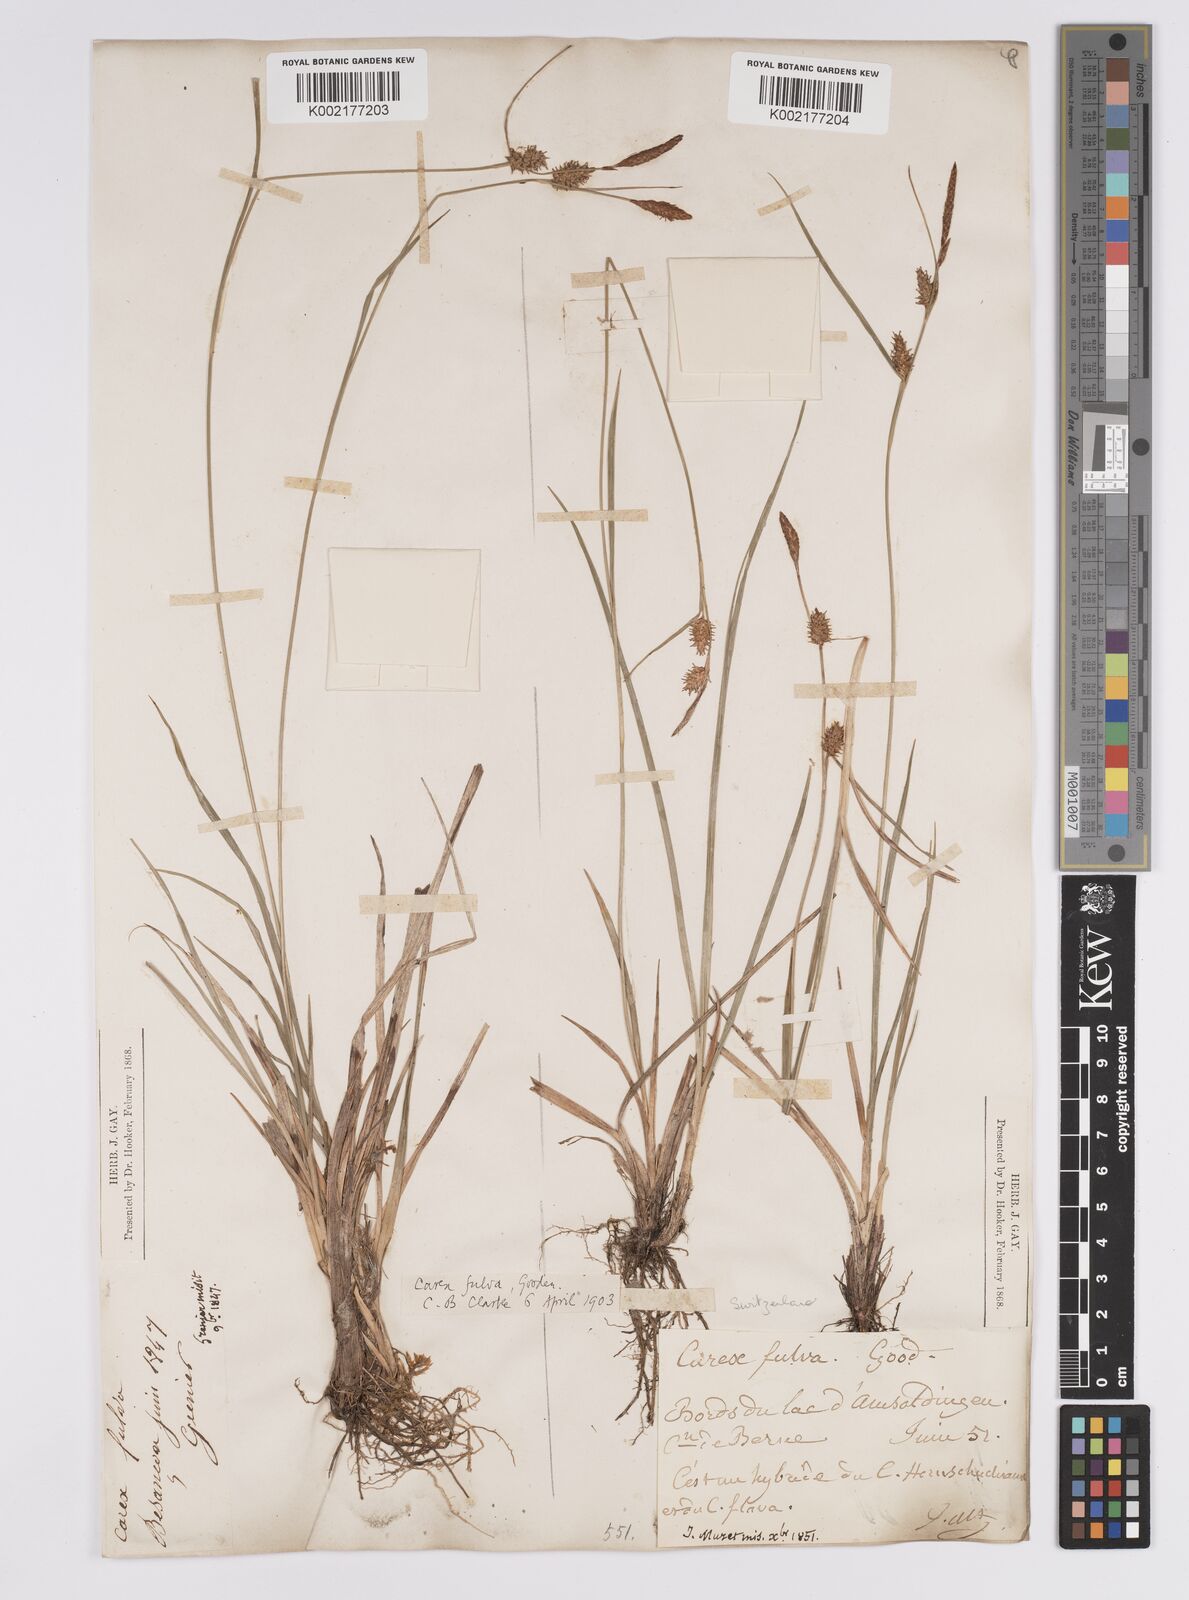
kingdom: Plantae
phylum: Tracheophyta
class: Liliopsida
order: Poales
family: Cyperaceae
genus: Carex
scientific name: Carex hostiana
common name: Tawny sedge
